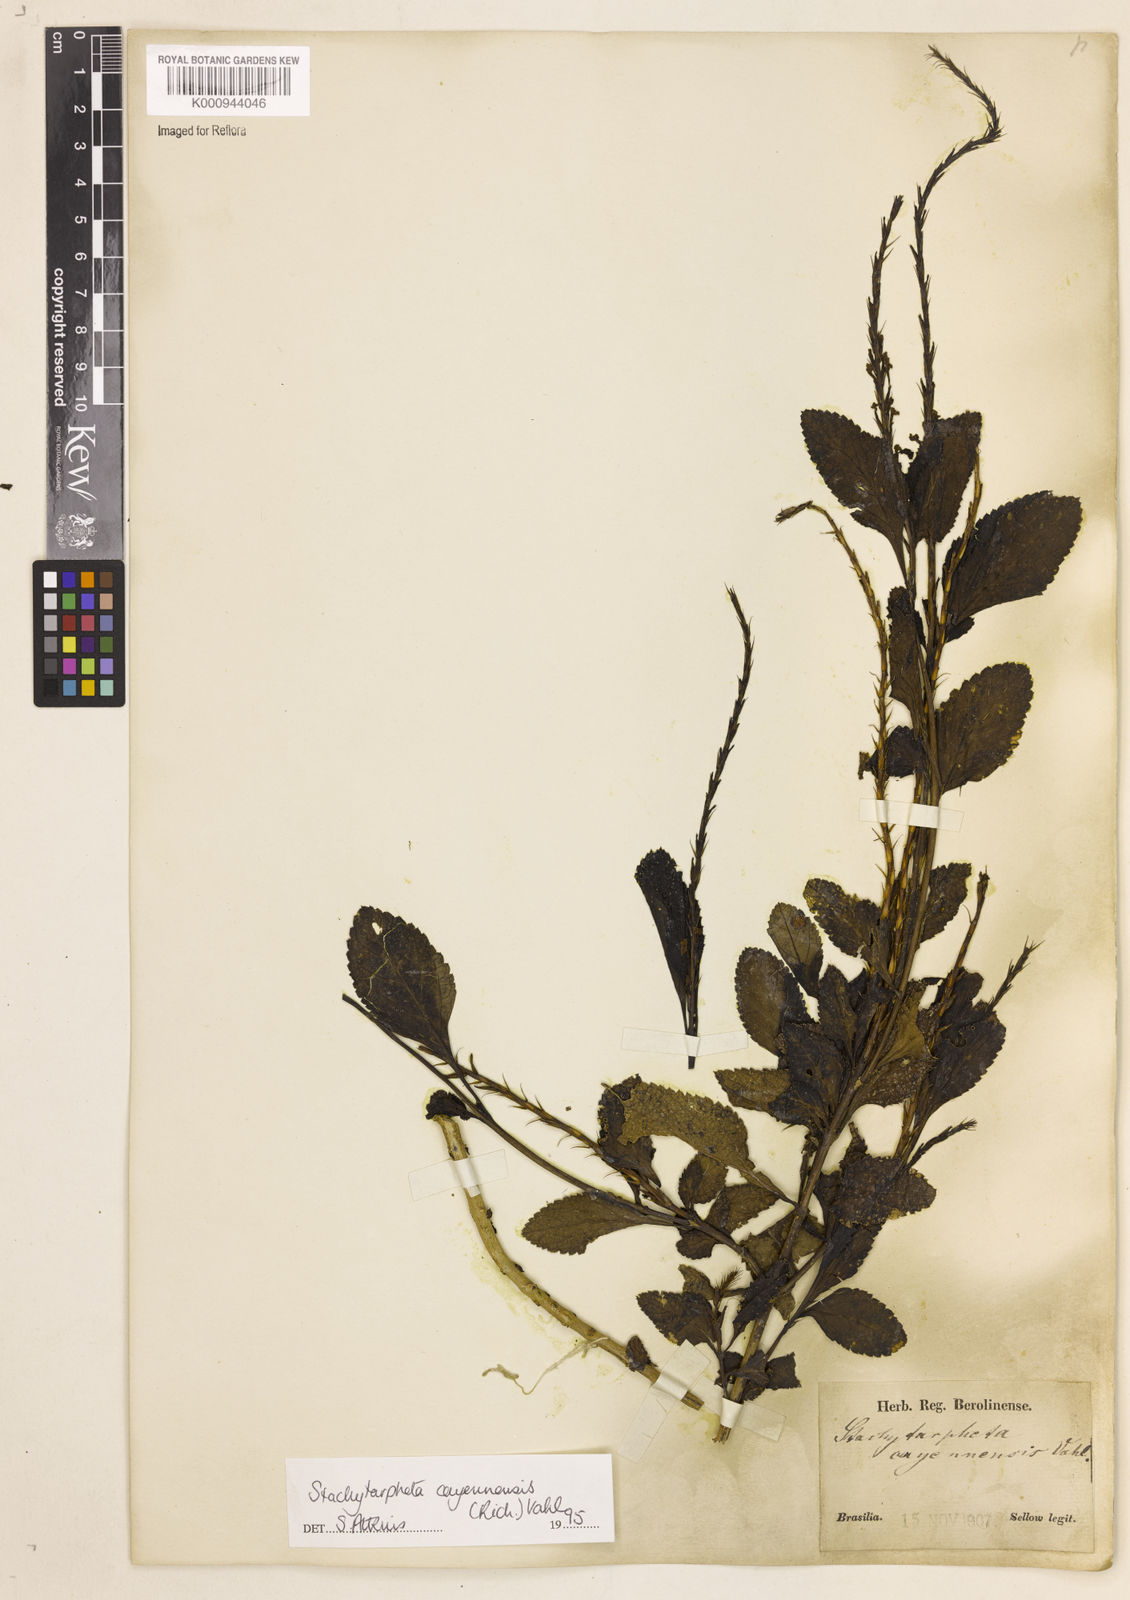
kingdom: Plantae
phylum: Tracheophyta
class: Magnoliopsida
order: Lamiales
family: Verbenaceae
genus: Aloysia
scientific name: Aloysia
